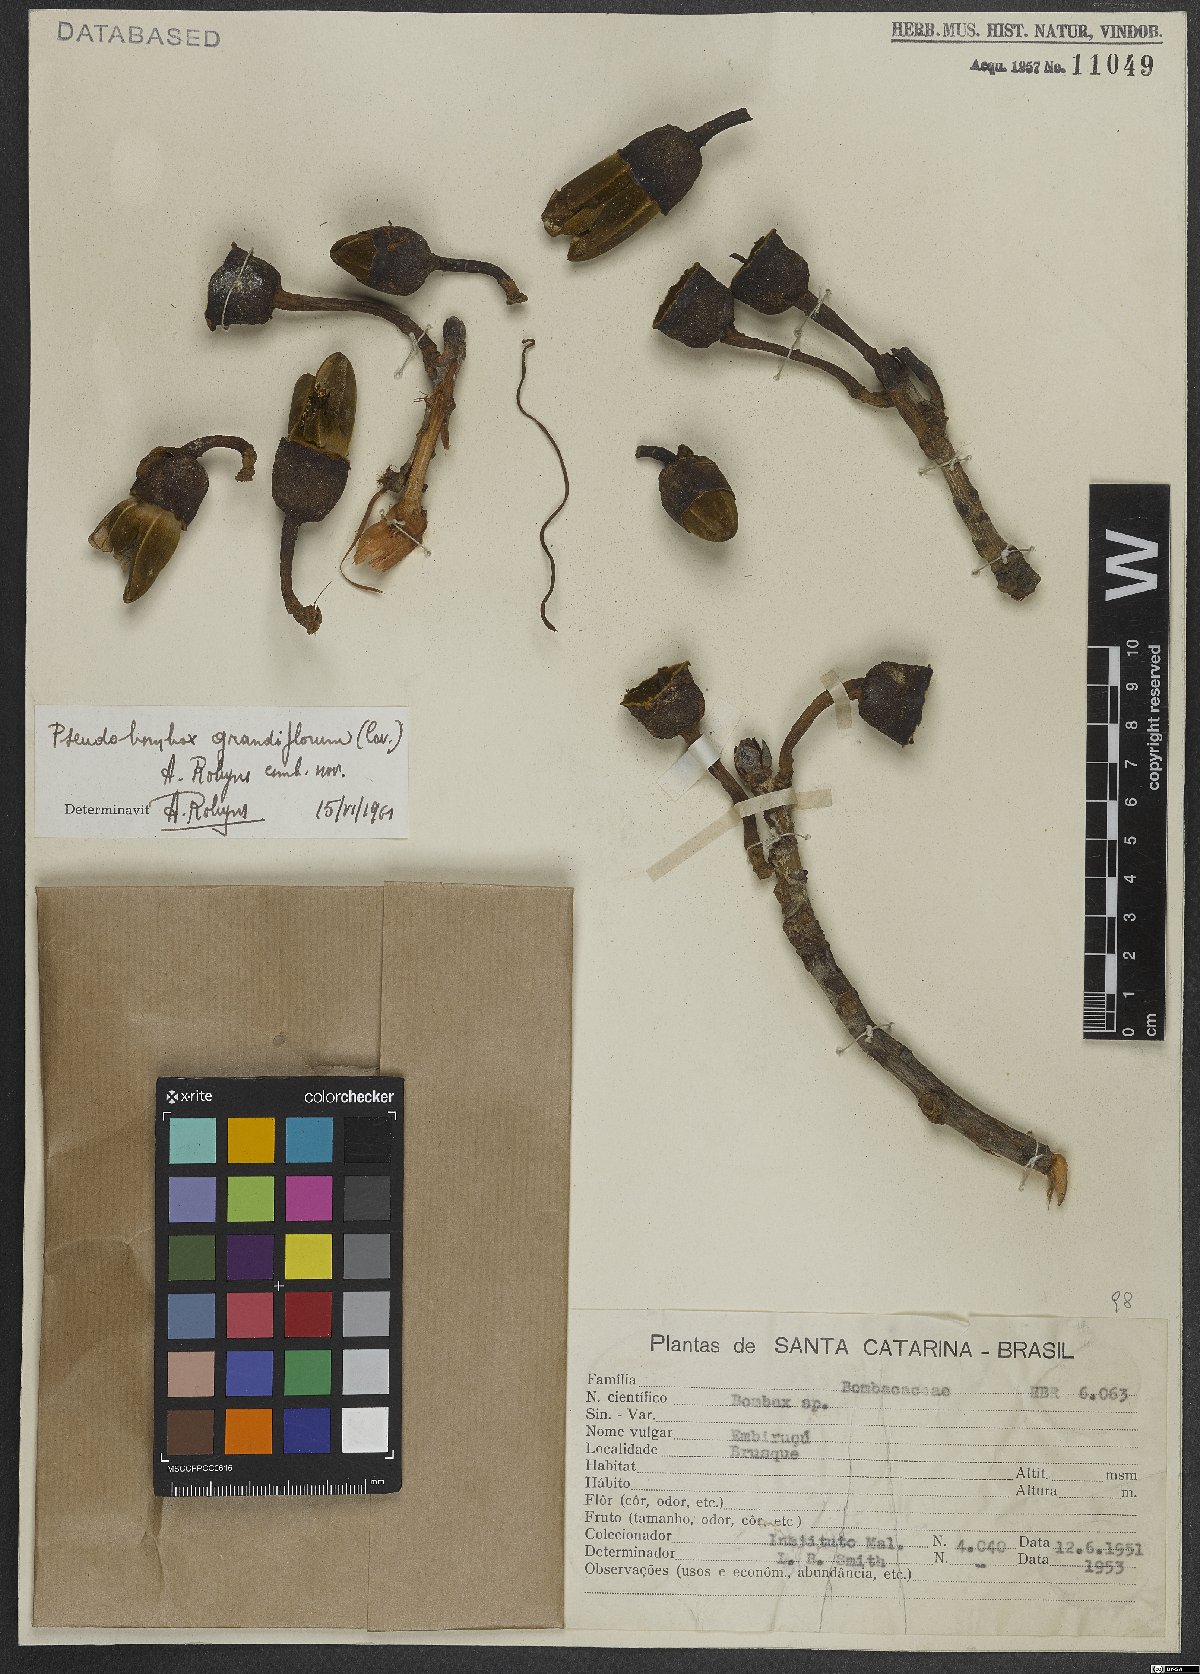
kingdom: Plantae
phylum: Tracheophyta
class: Magnoliopsida
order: Malvales
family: Malvaceae
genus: Pseudobombax
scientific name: Pseudobombax grandiflorum
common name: Brazilian shaving-brush-tree
